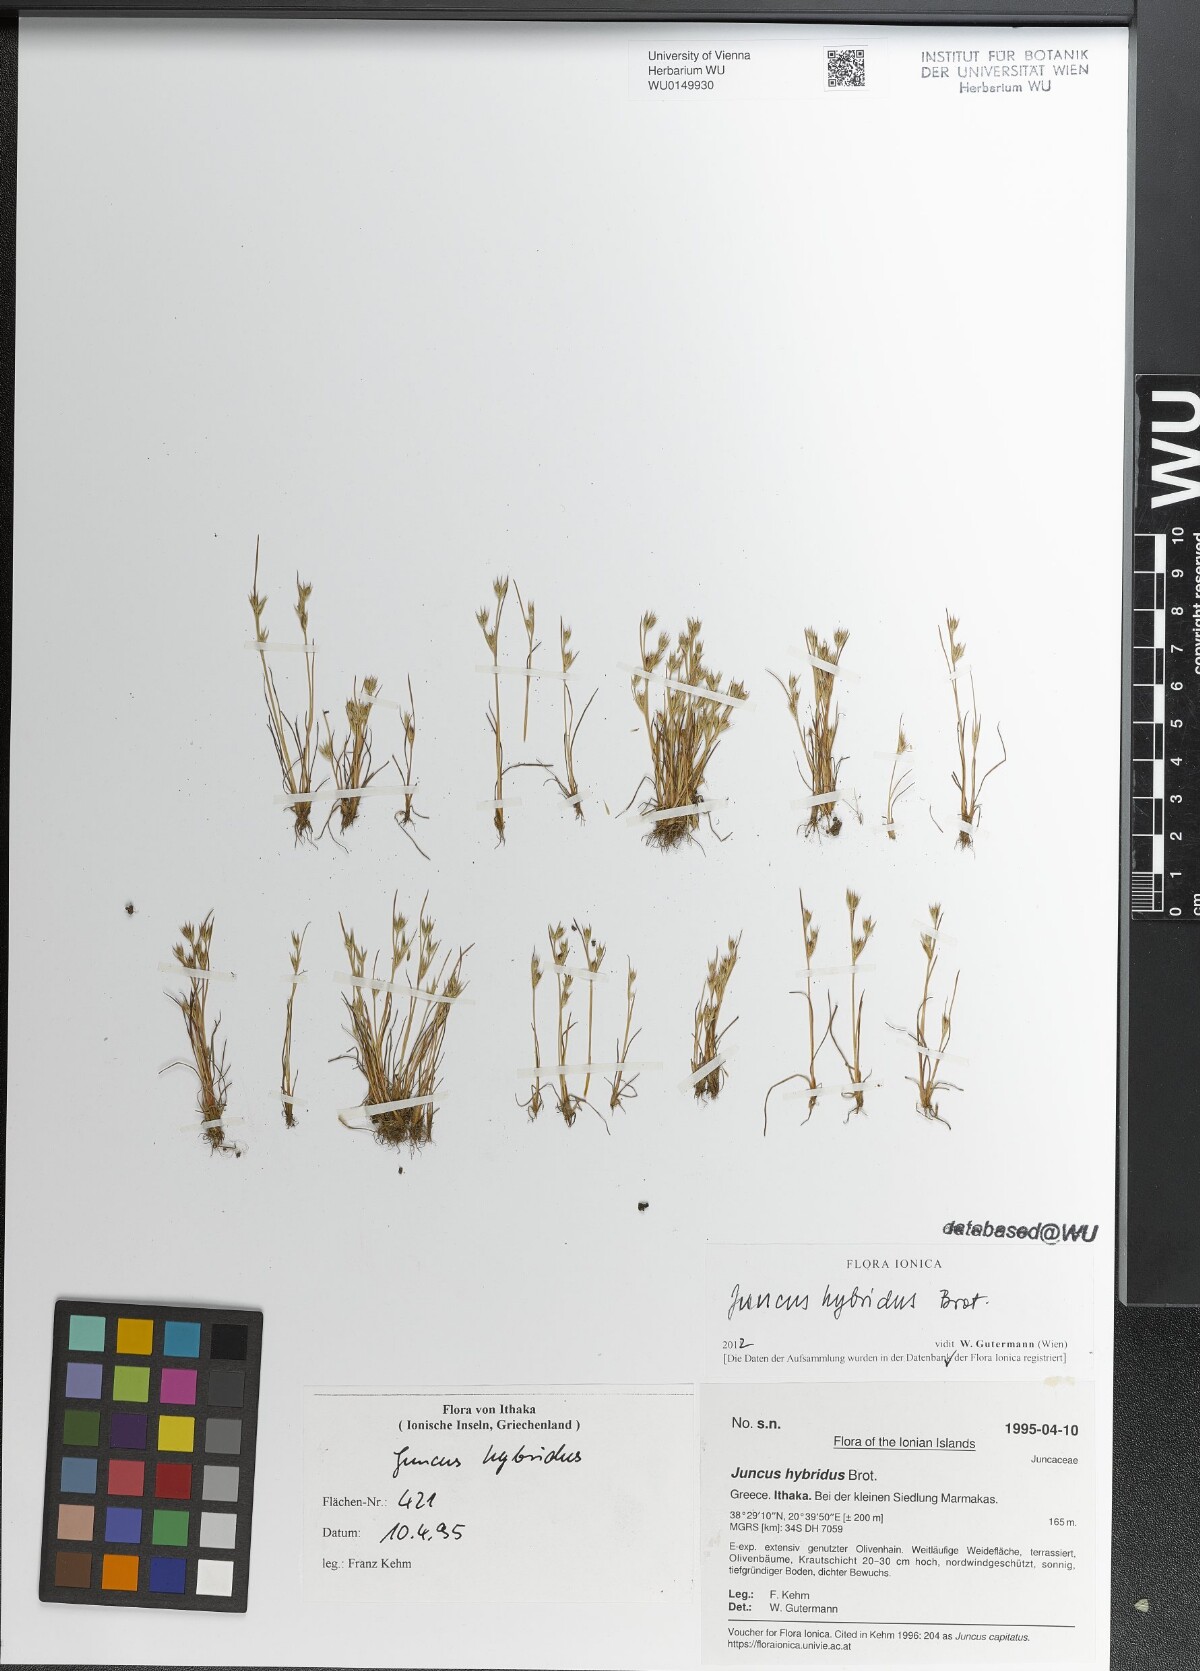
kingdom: Plantae
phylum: Tracheophyta
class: Liliopsida
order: Poales
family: Juncaceae
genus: Juncus
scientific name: Juncus hybridus
